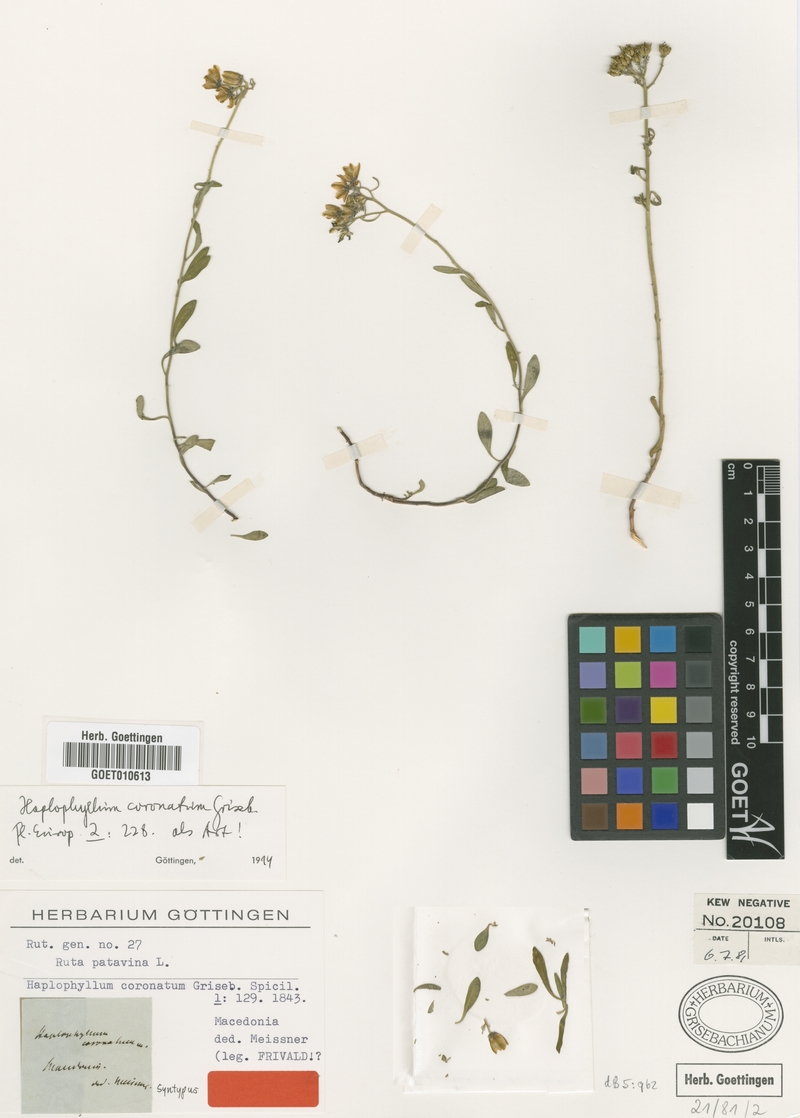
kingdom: Plantae
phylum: Tracheophyta
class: Magnoliopsida
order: Sapindales
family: Rutaceae
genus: Haplophyllum
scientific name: Haplophyllum patavinum
